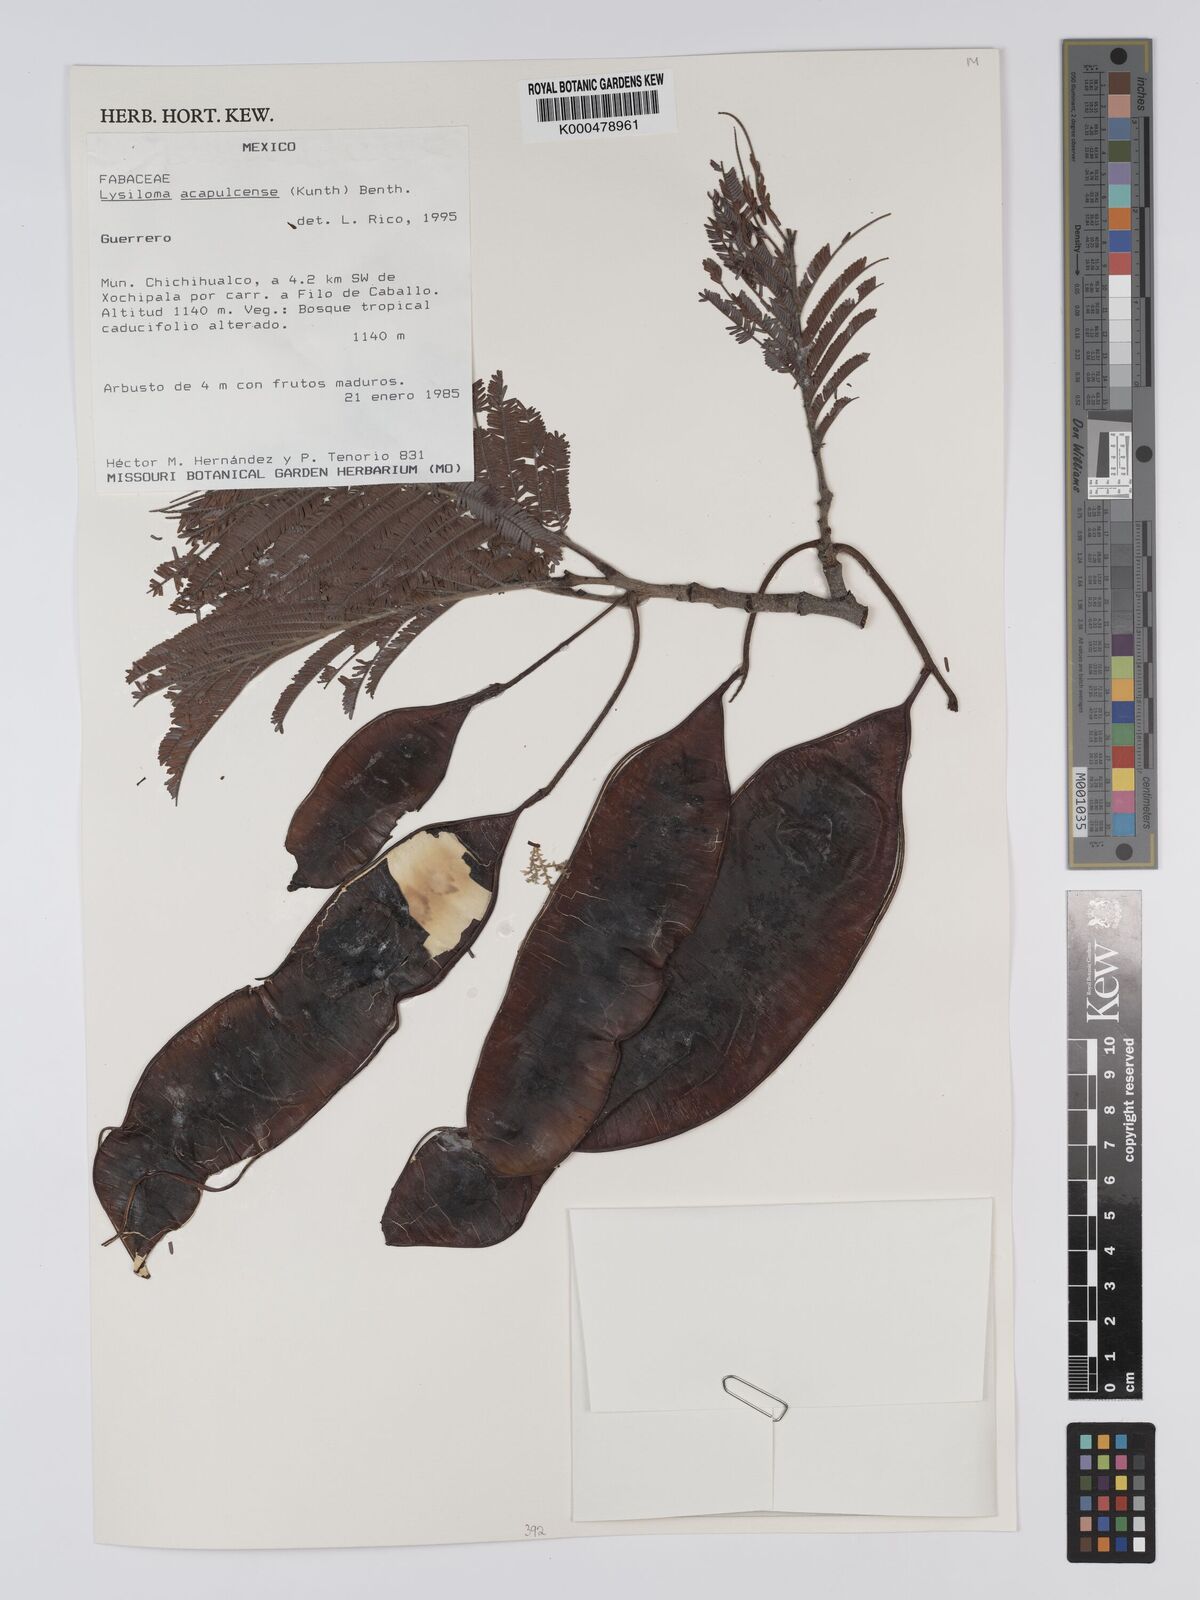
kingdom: Plantae
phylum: Tracheophyta
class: Magnoliopsida
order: Fabales
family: Fabaceae
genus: Lysiloma
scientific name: Lysiloma
